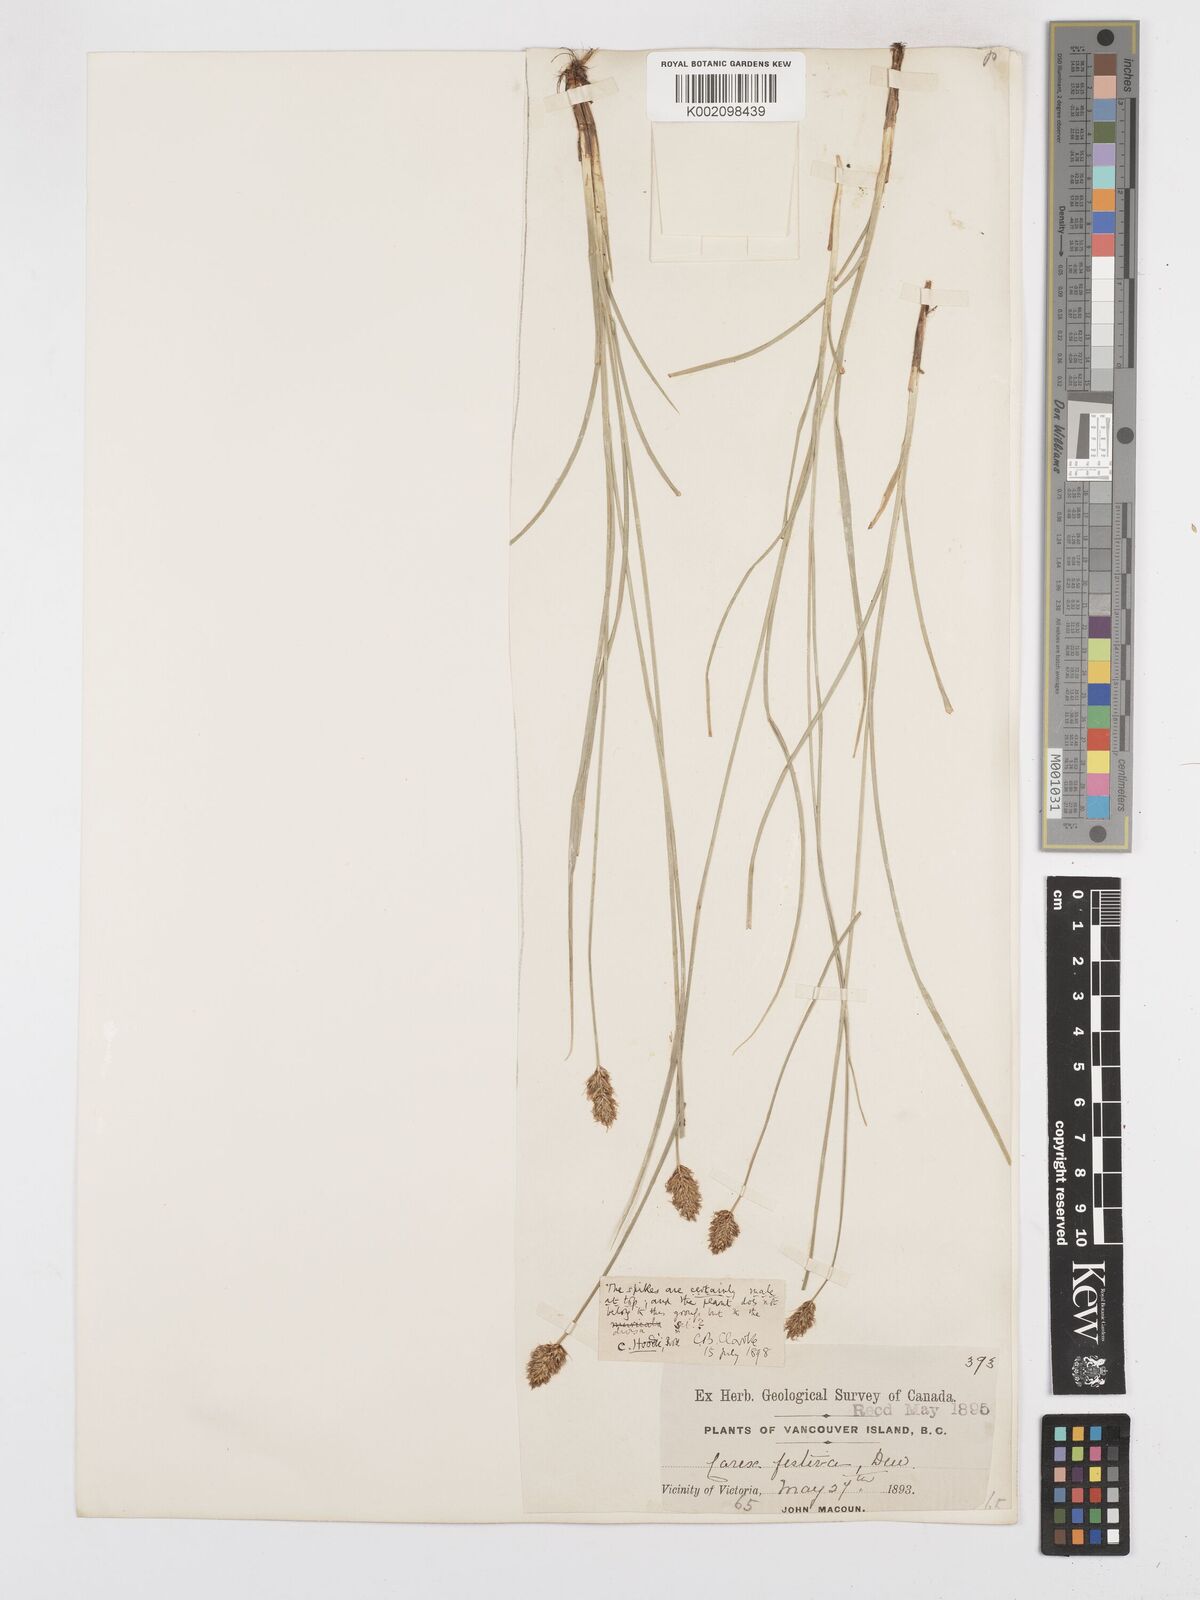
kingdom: Plantae
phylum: Tracheophyta
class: Liliopsida
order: Poales
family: Cyperaceae
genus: Carex
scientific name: Carex hoodii
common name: Hood's sedge
